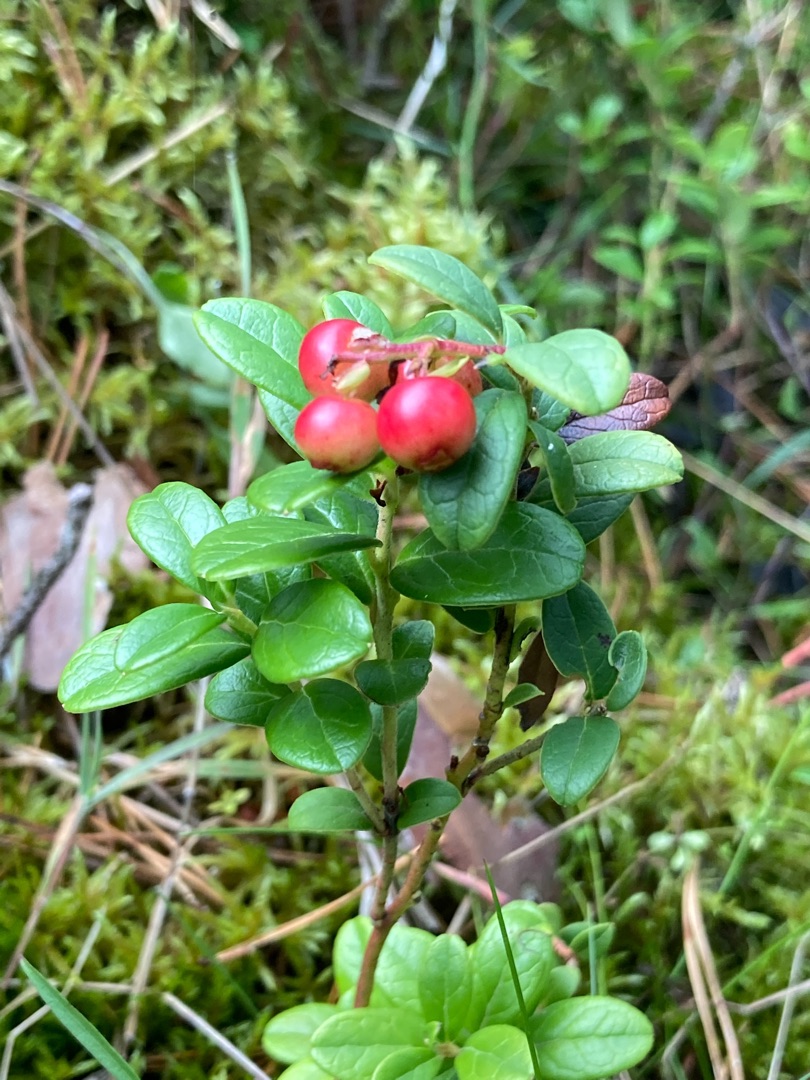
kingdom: Plantae
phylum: Tracheophyta
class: Magnoliopsida
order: Ericales
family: Ericaceae
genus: Vaccinium
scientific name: Vaccinium vitis-idaea
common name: Tyttebær
